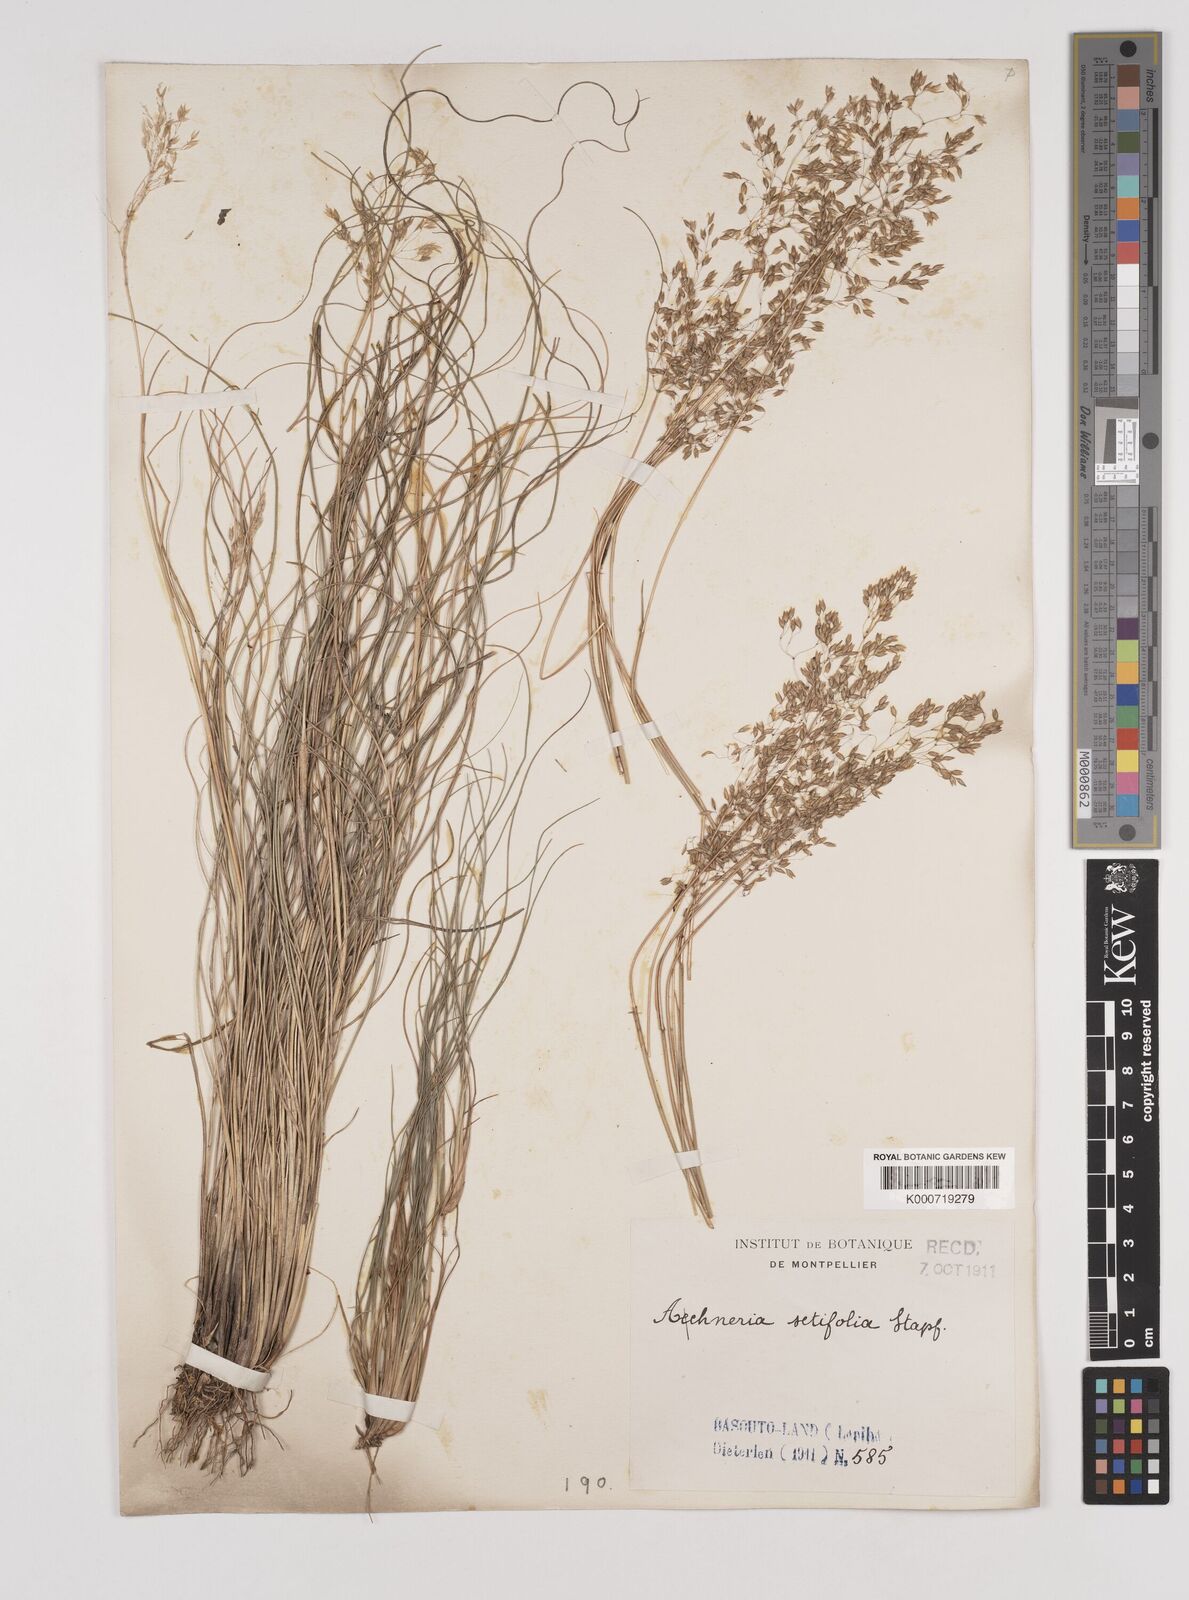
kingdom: Plantae
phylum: Tracheophyta
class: Liliopsida
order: Poales
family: Poaceae
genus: Pentameris
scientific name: Pentameris setifolia
